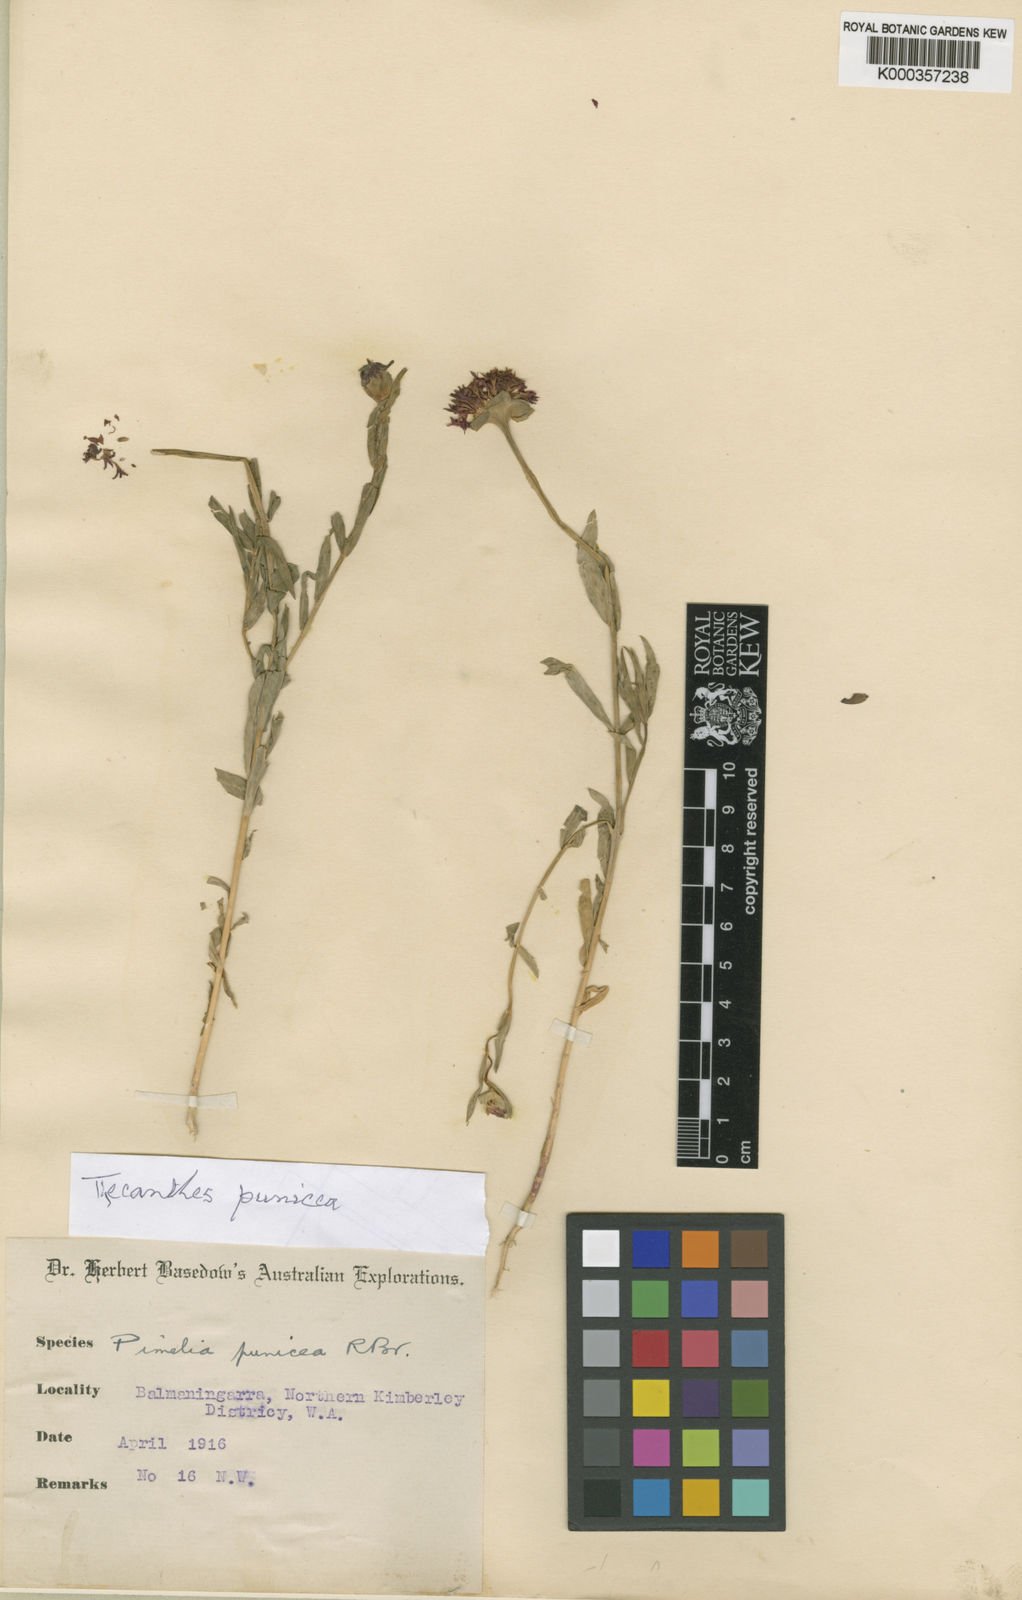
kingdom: Plantae
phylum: Tracheophyta
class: Magnoliopsida
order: Malvales
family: Thymelaeaceae
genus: Pimelea
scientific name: Pimelea punicea
